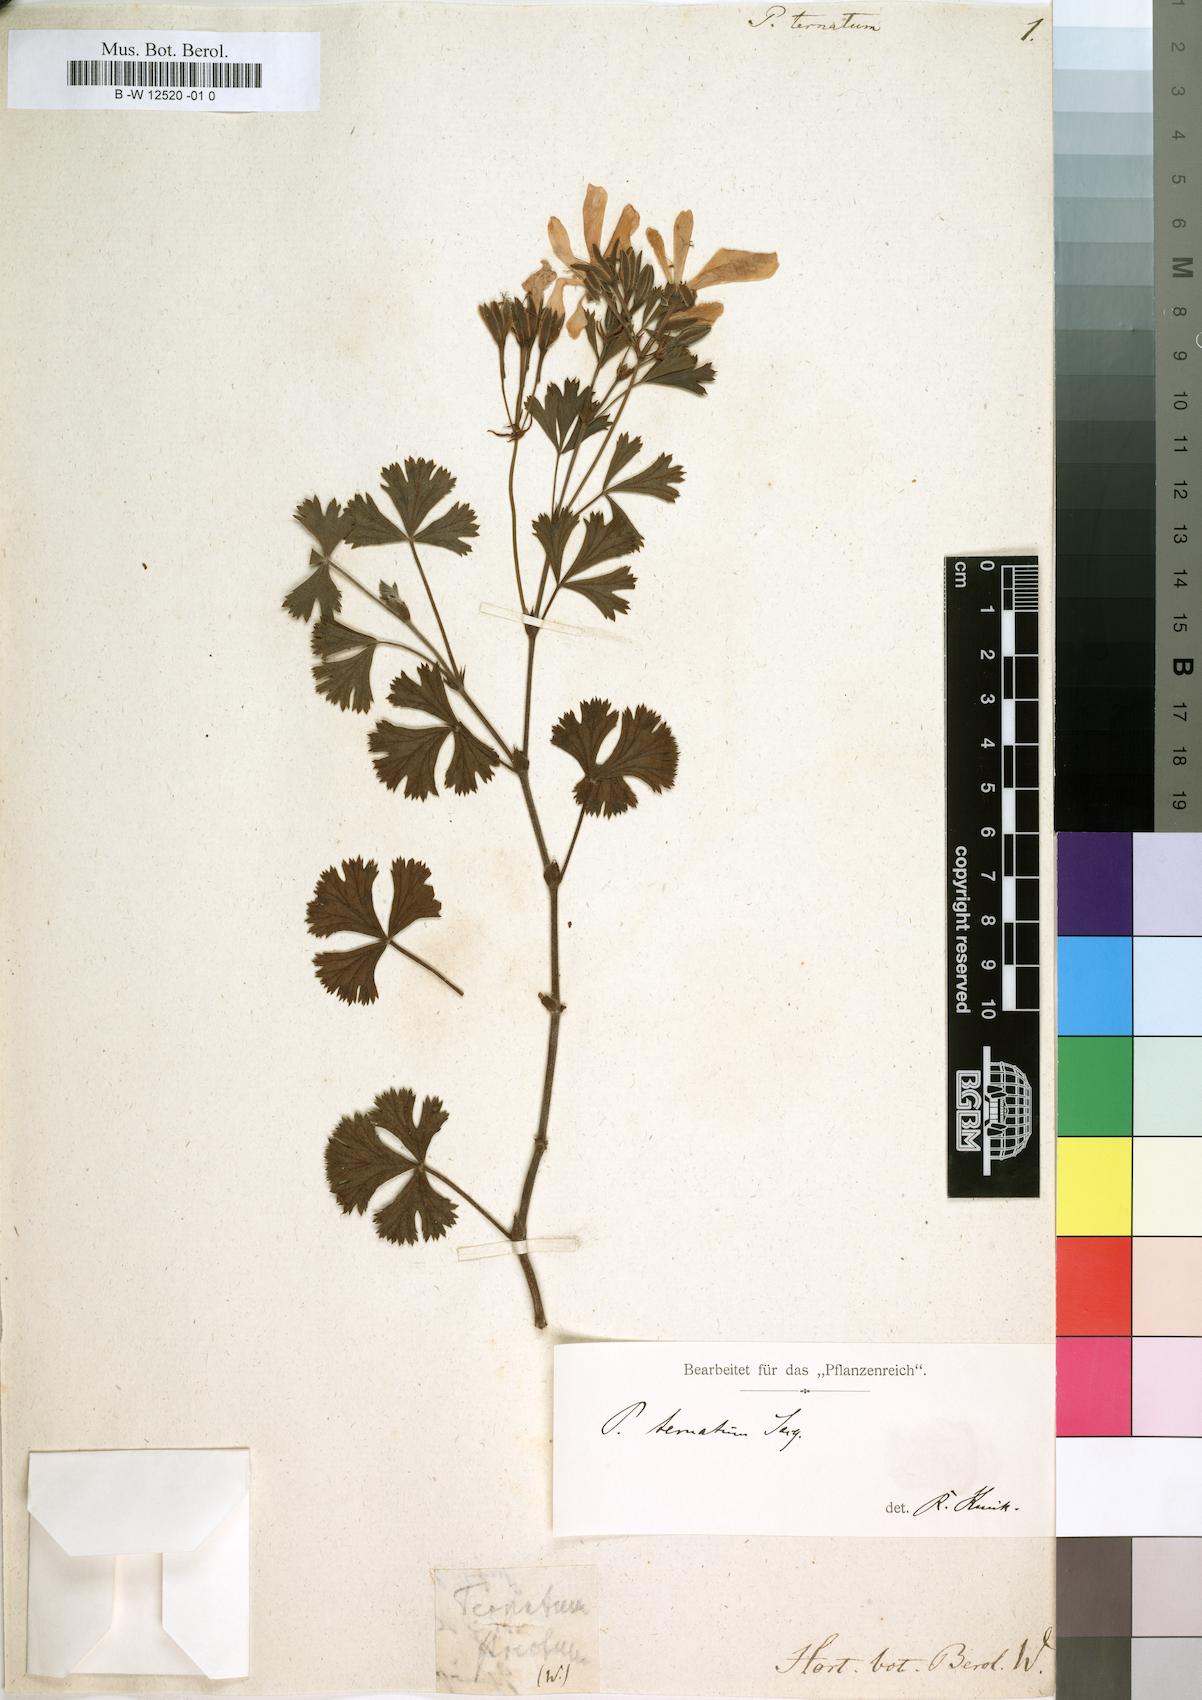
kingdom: Plantae
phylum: Tracheophyta
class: Magnoliopsida
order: Geraniales
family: Geraniaceae
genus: Pelargonium
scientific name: Pelargonium ternatum
